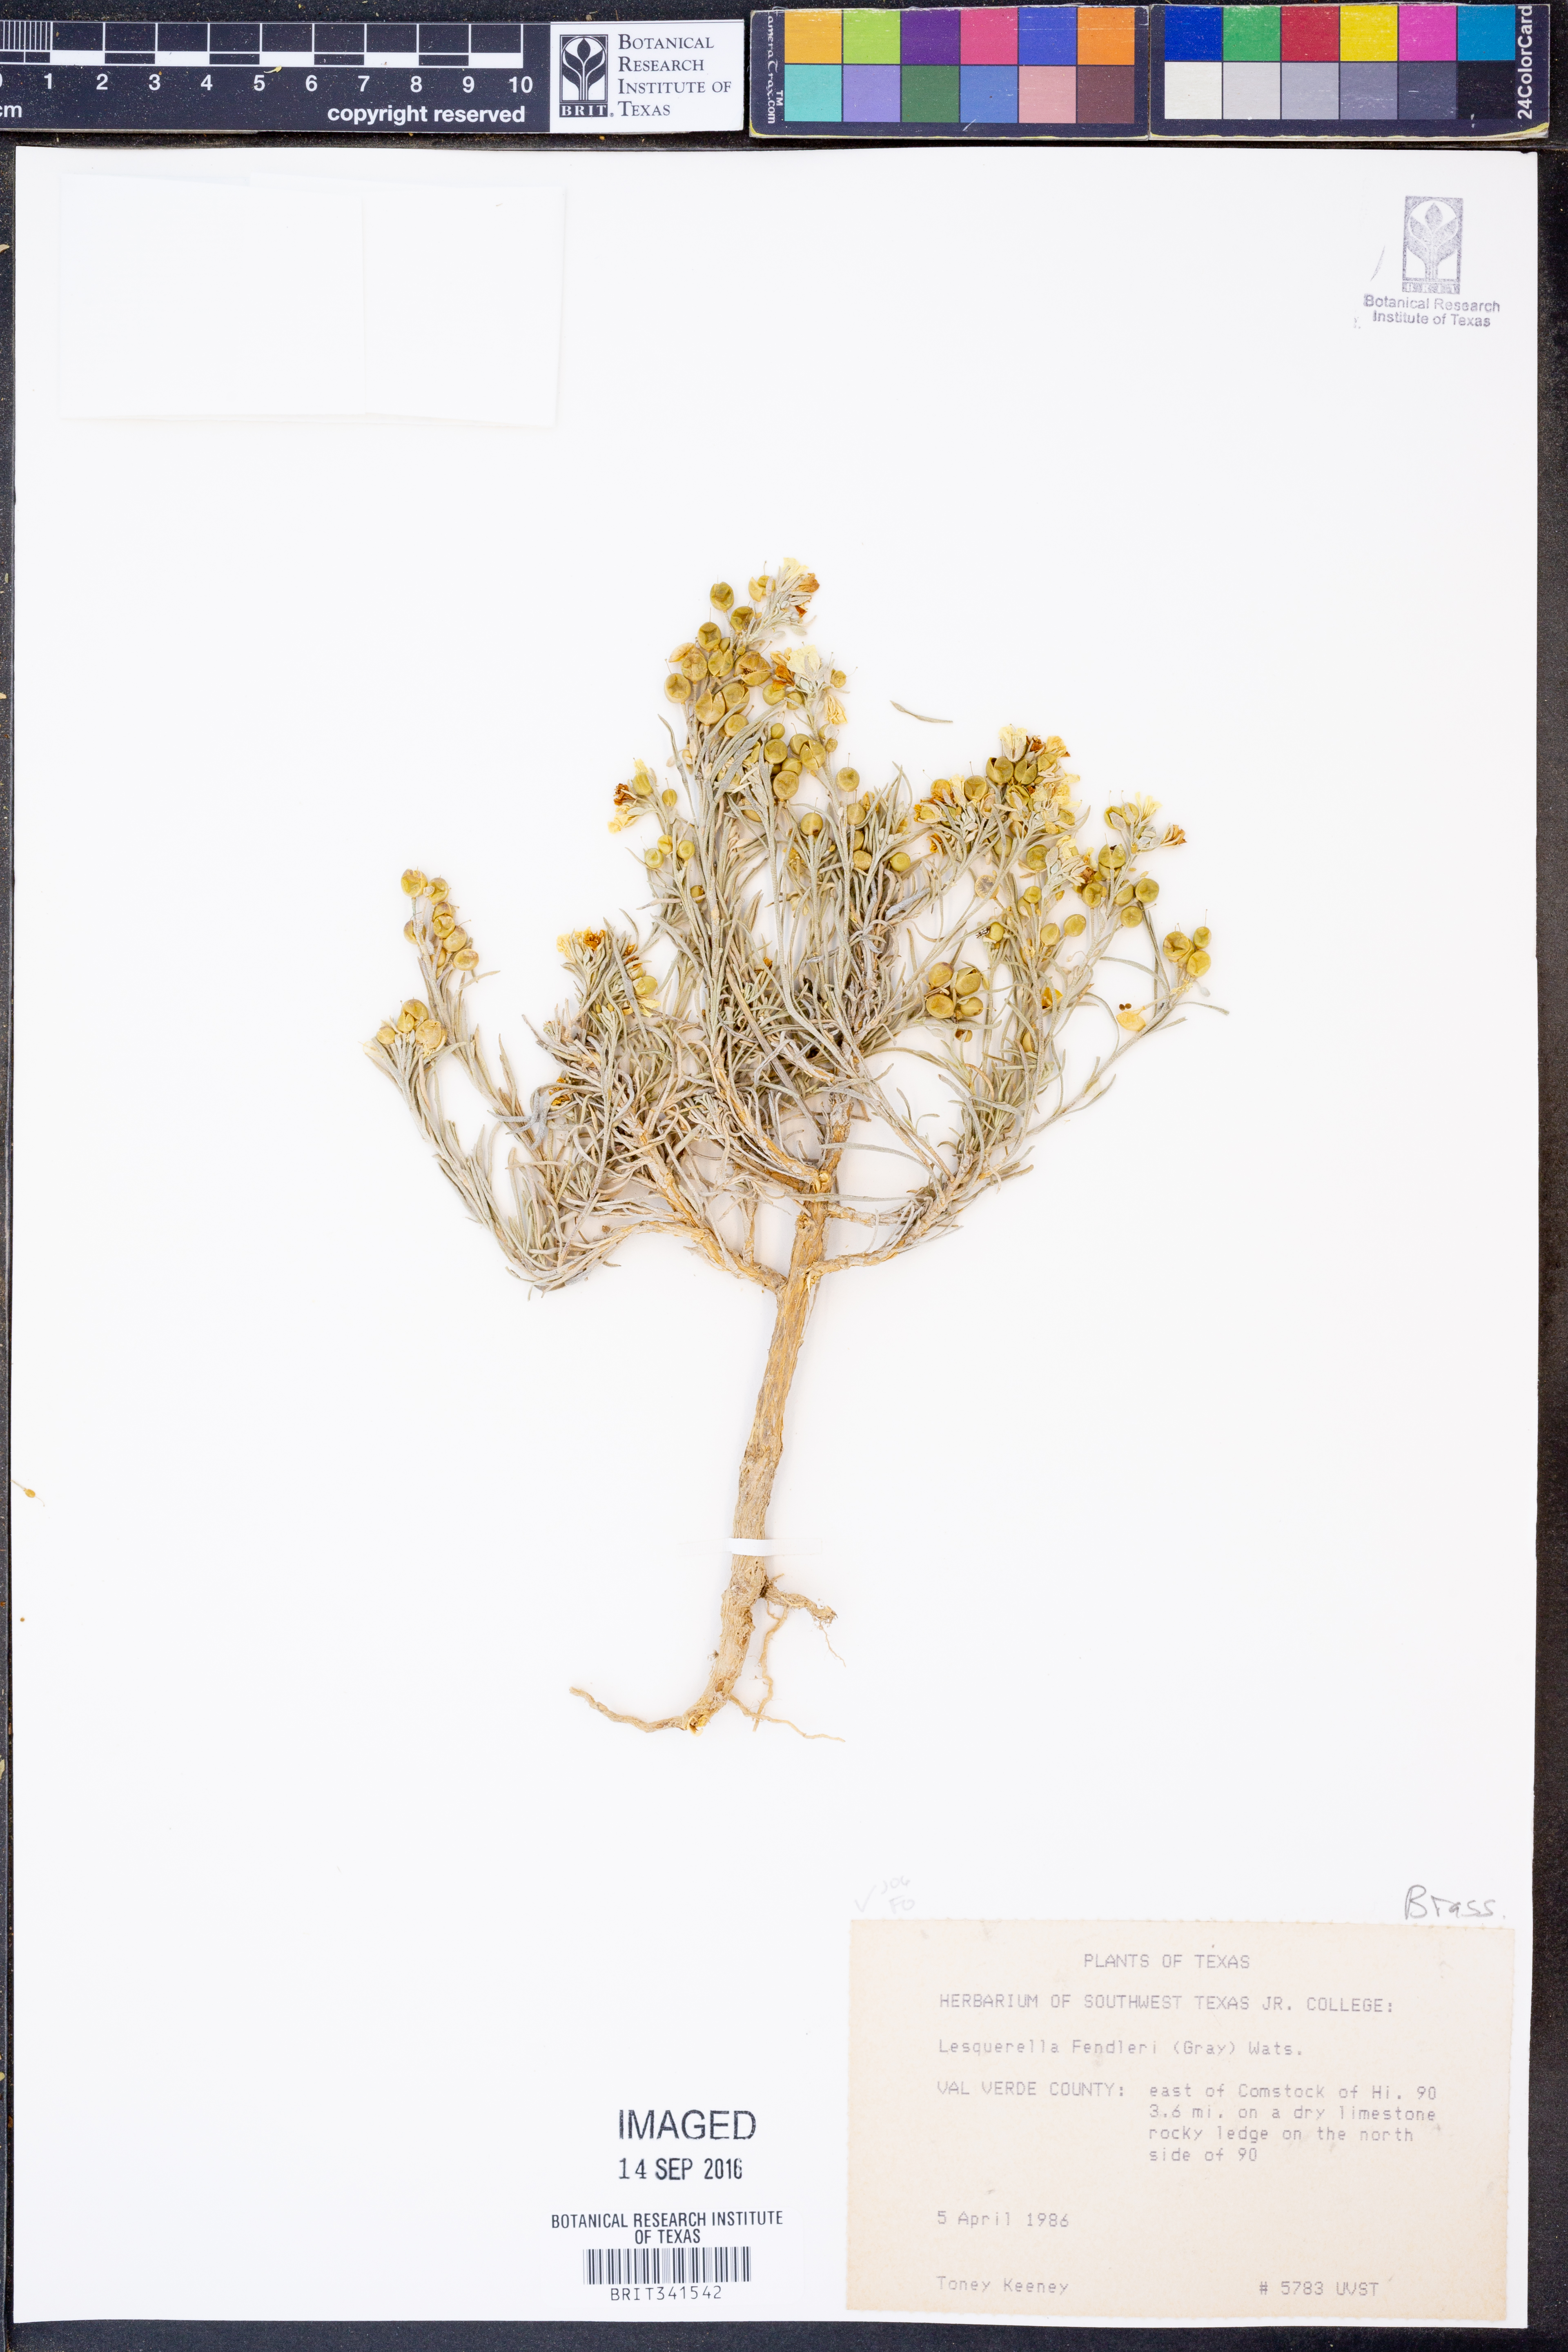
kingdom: Plantae
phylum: Tracheophyta
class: Magnoliopsida
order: Brassicales
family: Brassicaceae
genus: Physaria
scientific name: Physaria fendleri
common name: Fendler's bladderpod
